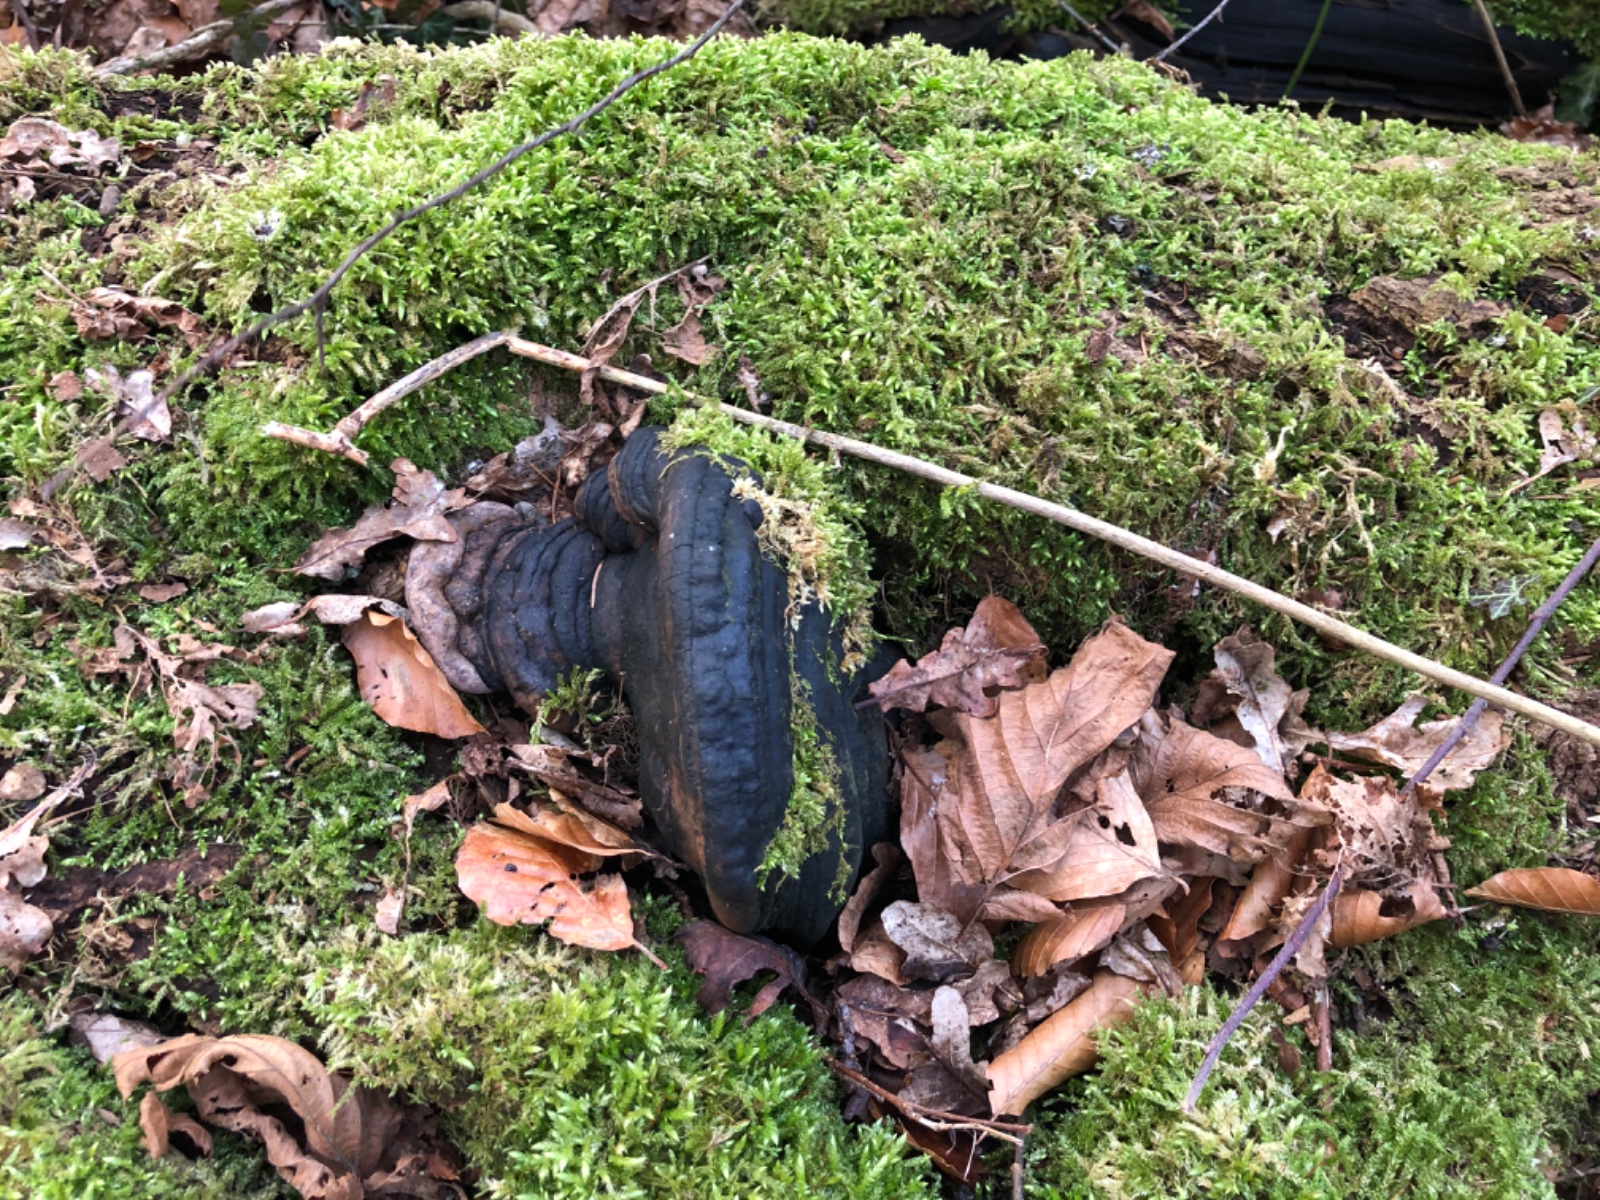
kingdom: Fungi
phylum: Basidiomycota
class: Agaricomycetes
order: Hymenochaetales
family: Hymenochaetaceae
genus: Phellinus
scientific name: Phellinus populicola
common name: poppel-ildporesvamp
